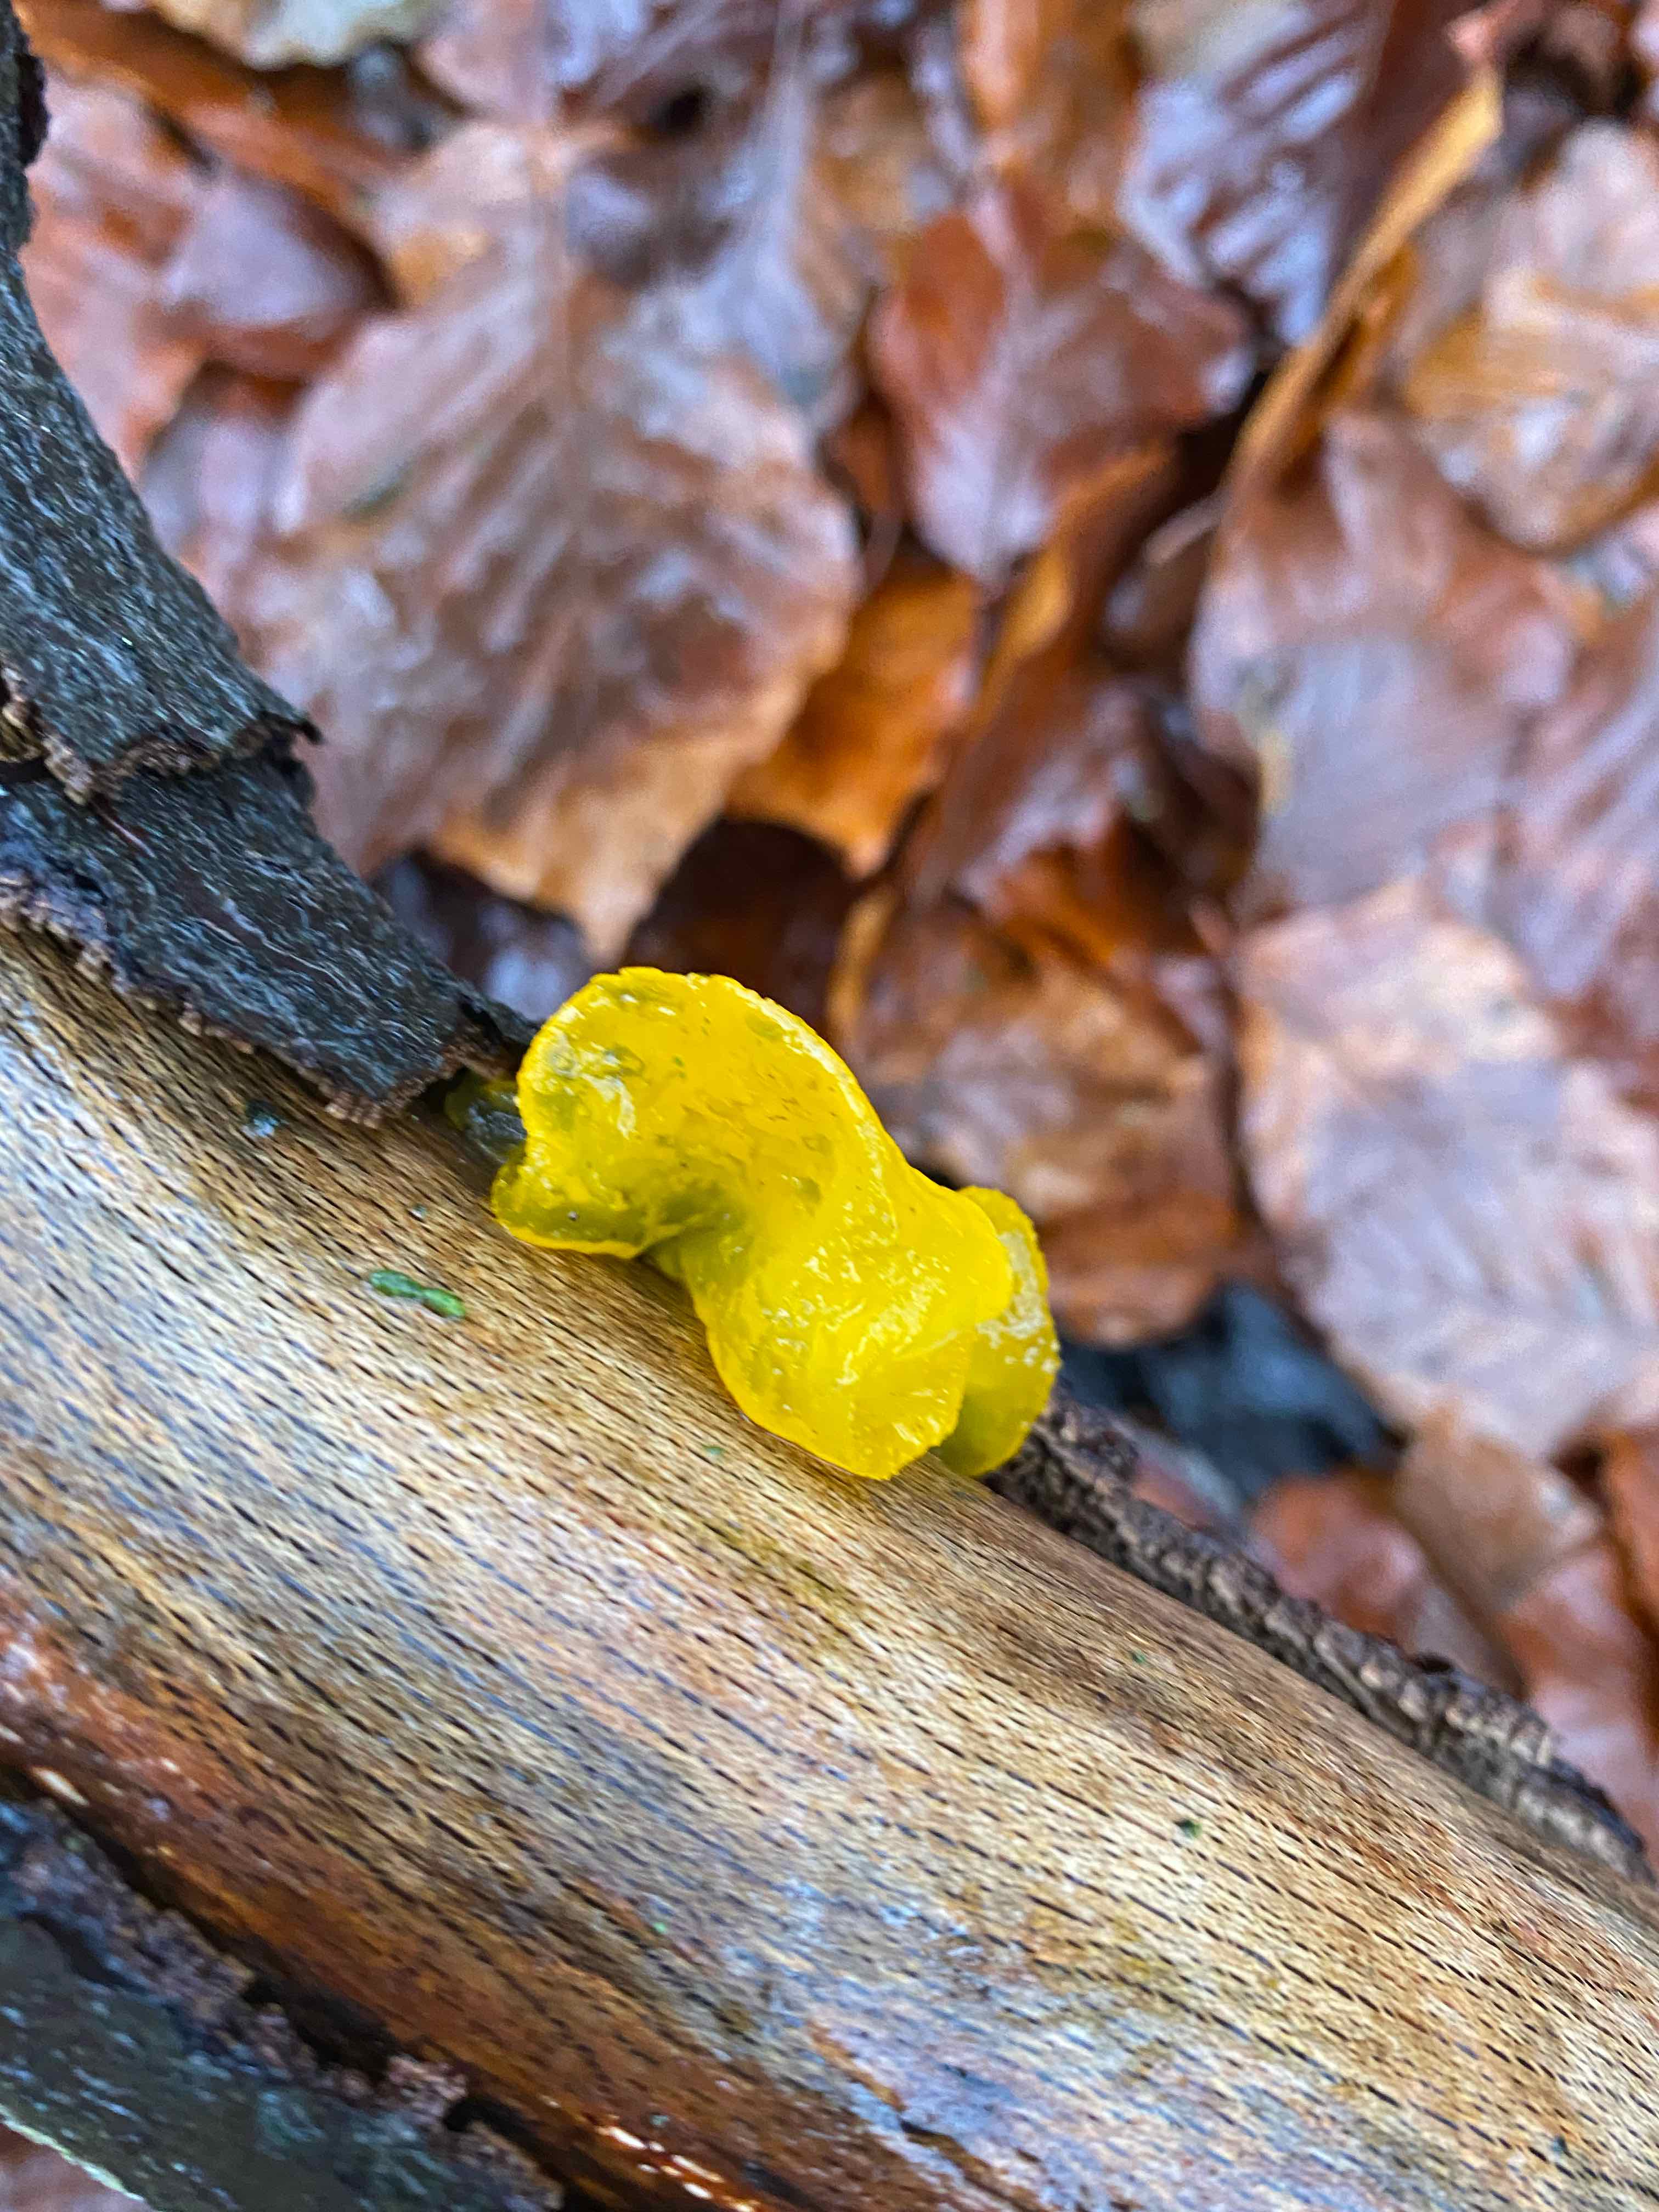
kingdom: Fungi
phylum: Basidiomycota
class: Tremellomycetes
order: Tremellales
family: Tremellaceae
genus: Tremella
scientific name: Tremella mesenterica
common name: gul bævresvamp
